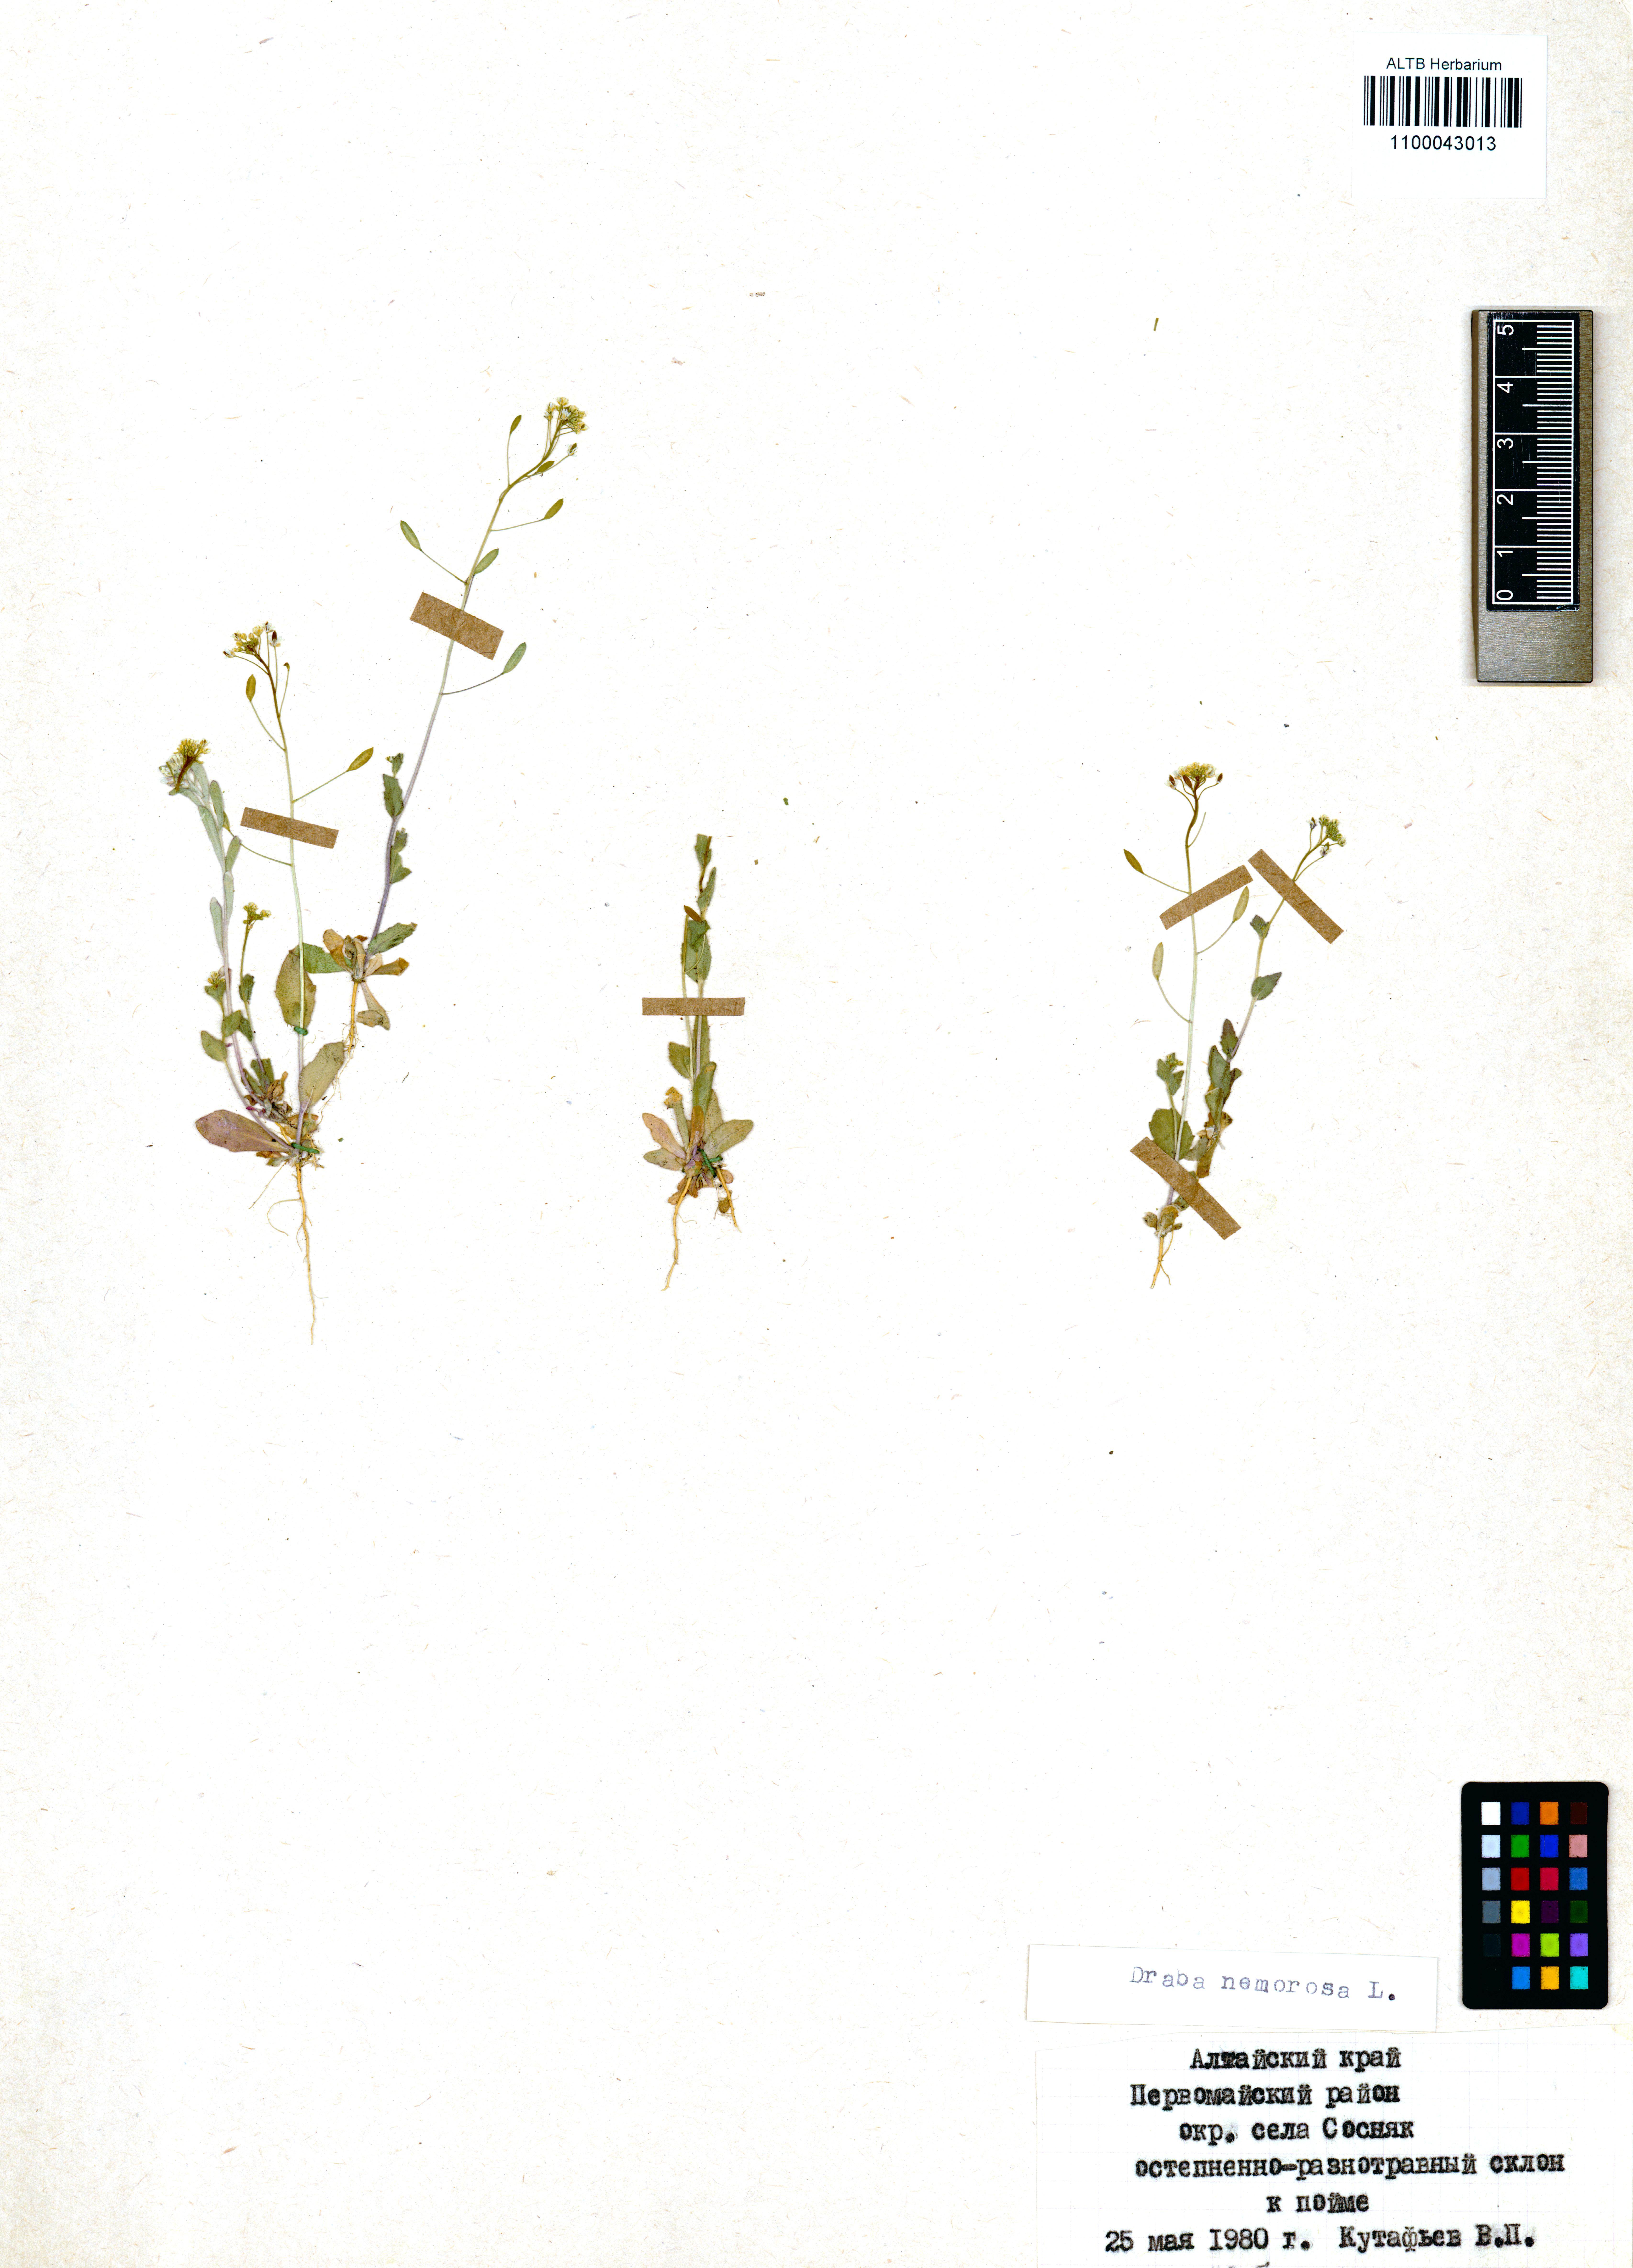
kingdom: Plantae
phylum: Tracheophyta
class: Magnoliopsida
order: Brassicales
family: Brassicaceae
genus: Draba
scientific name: Draba nemorosa
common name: Wood whitlow-grass
